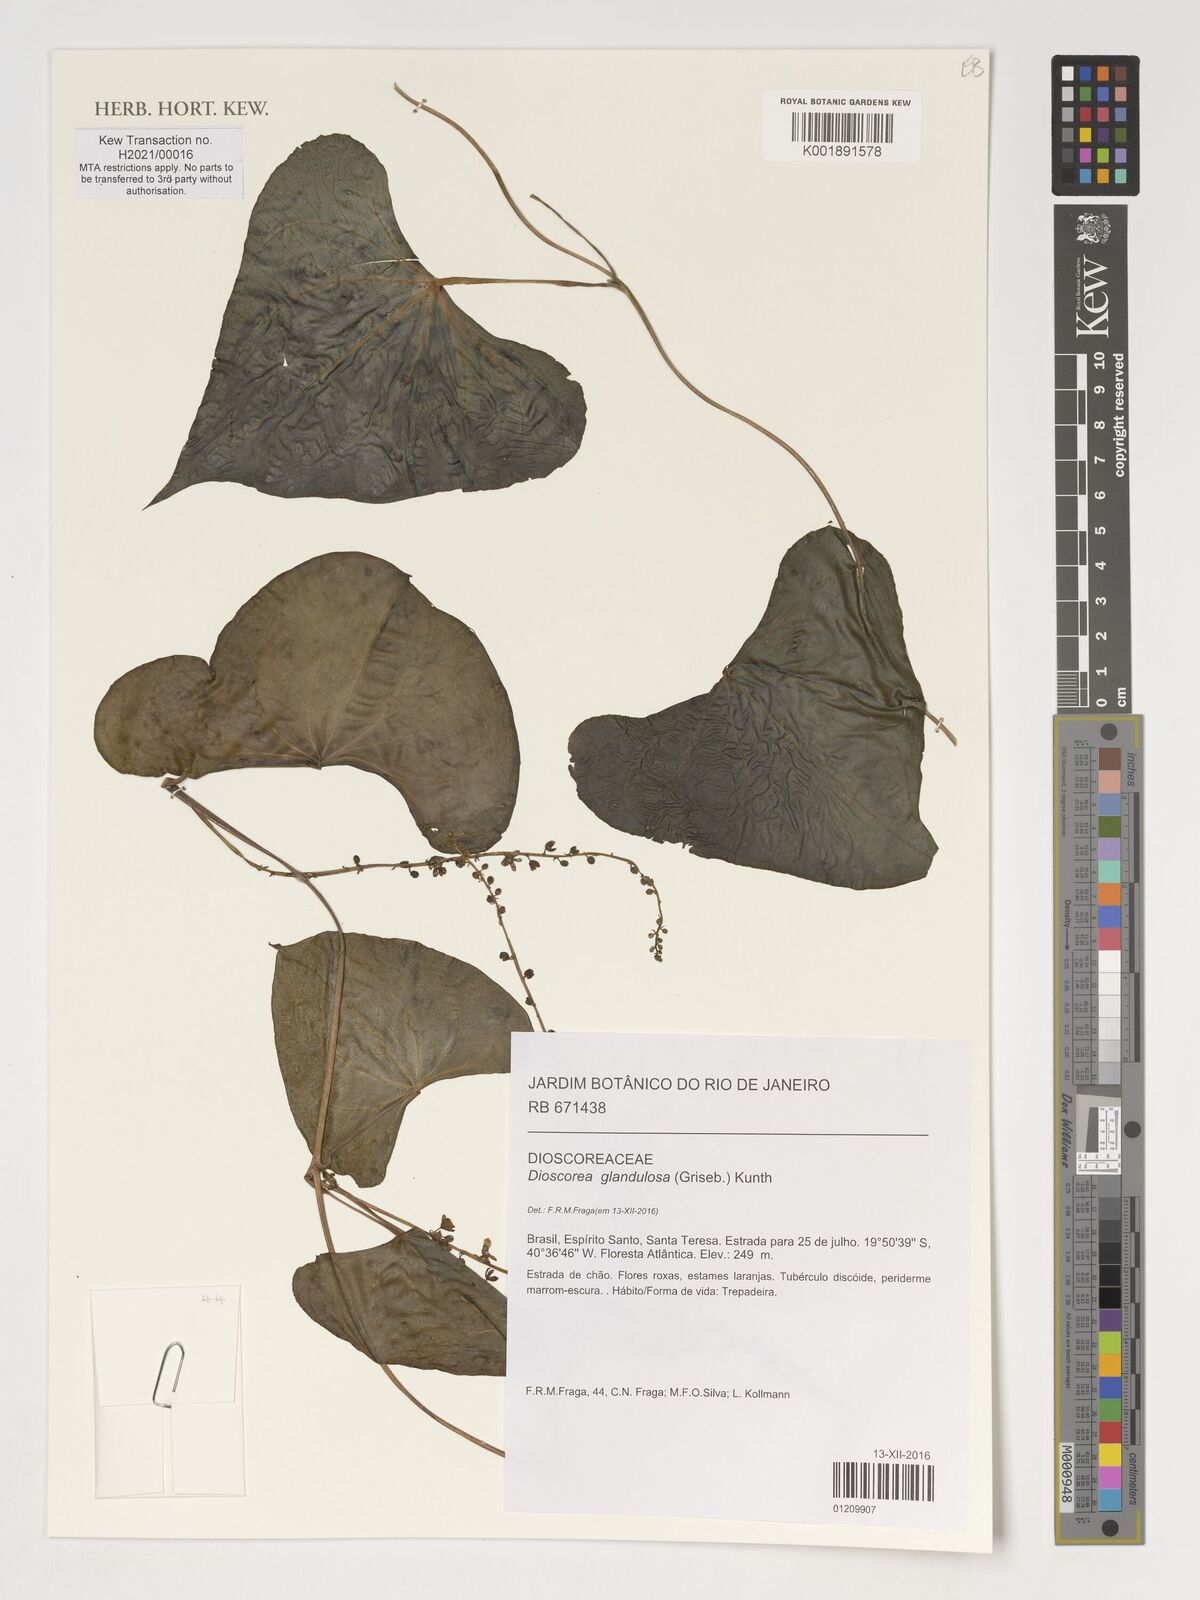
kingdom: Plantae
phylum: Tracheophyta
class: Liliopsida
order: Dioscoreales
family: Dioscoreaceae
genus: Dioscorea
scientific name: Dioscorea glandulosa
